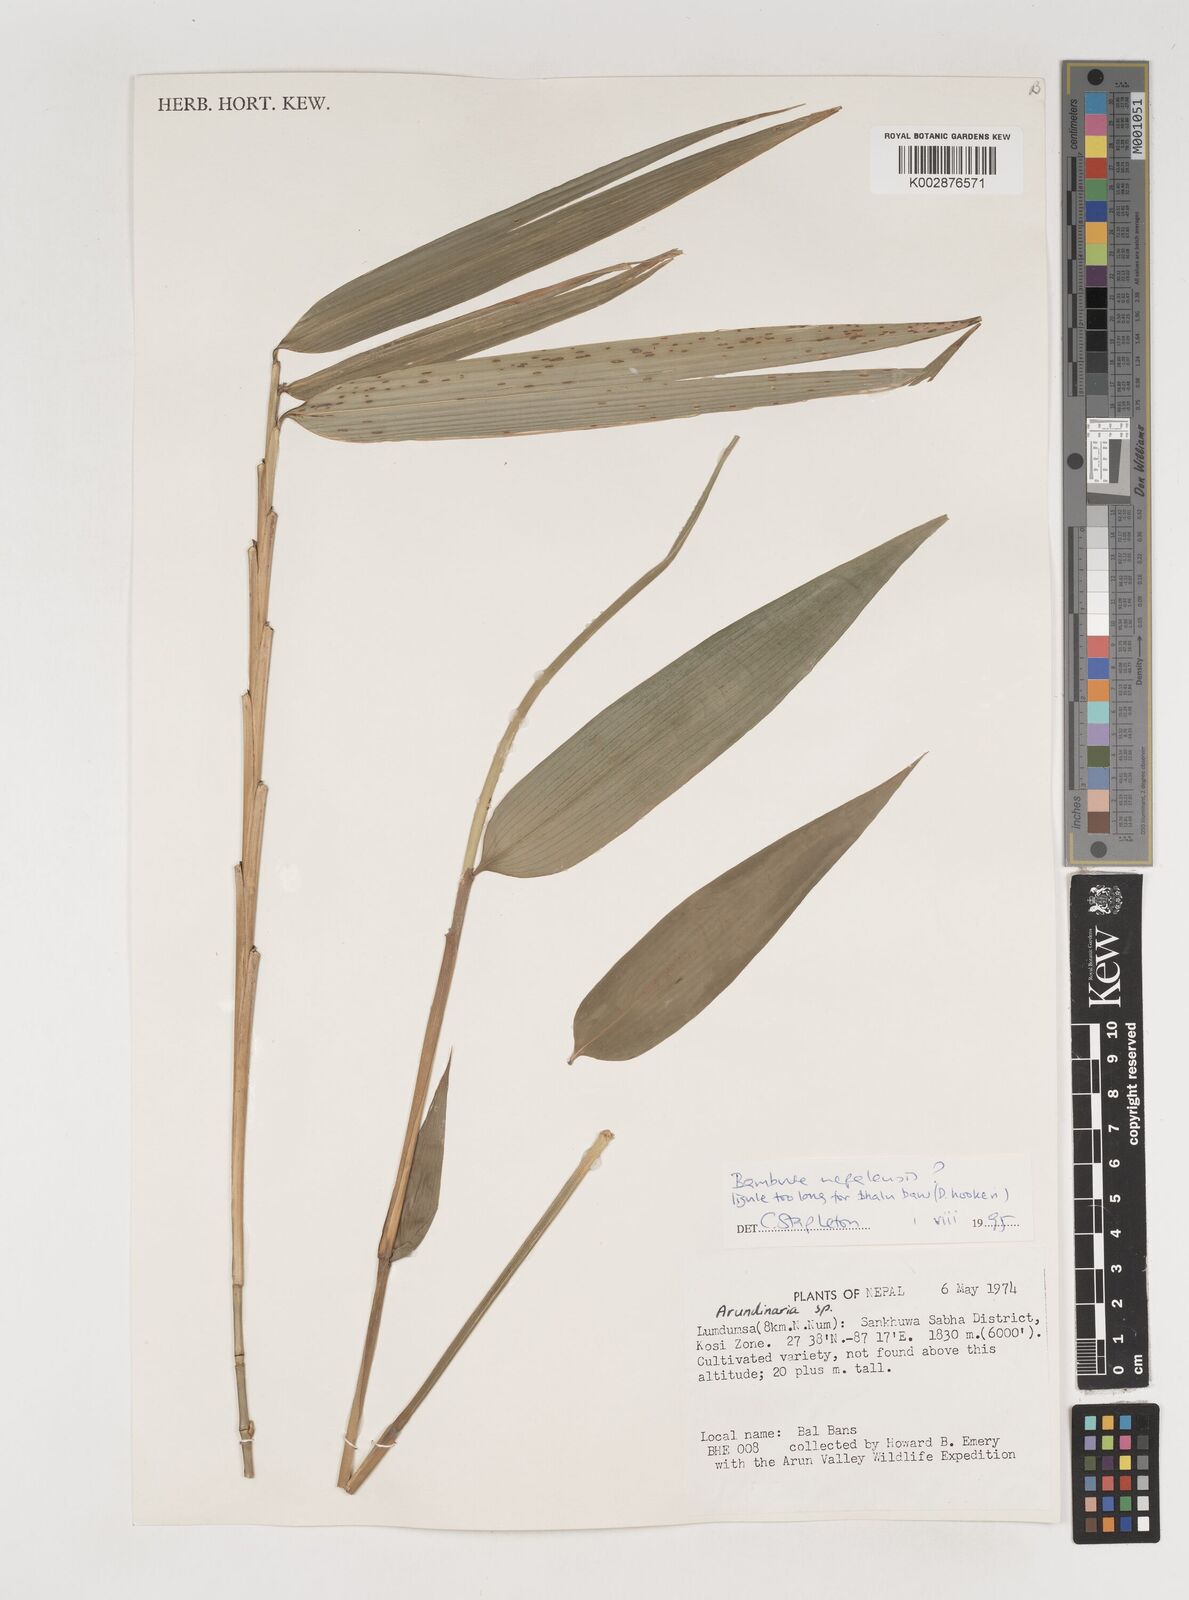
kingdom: Plantae
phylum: Tracheophyta
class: Liliopsida
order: Poales
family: Poaceae
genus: Bambusa
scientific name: Bambusa nepalensis
